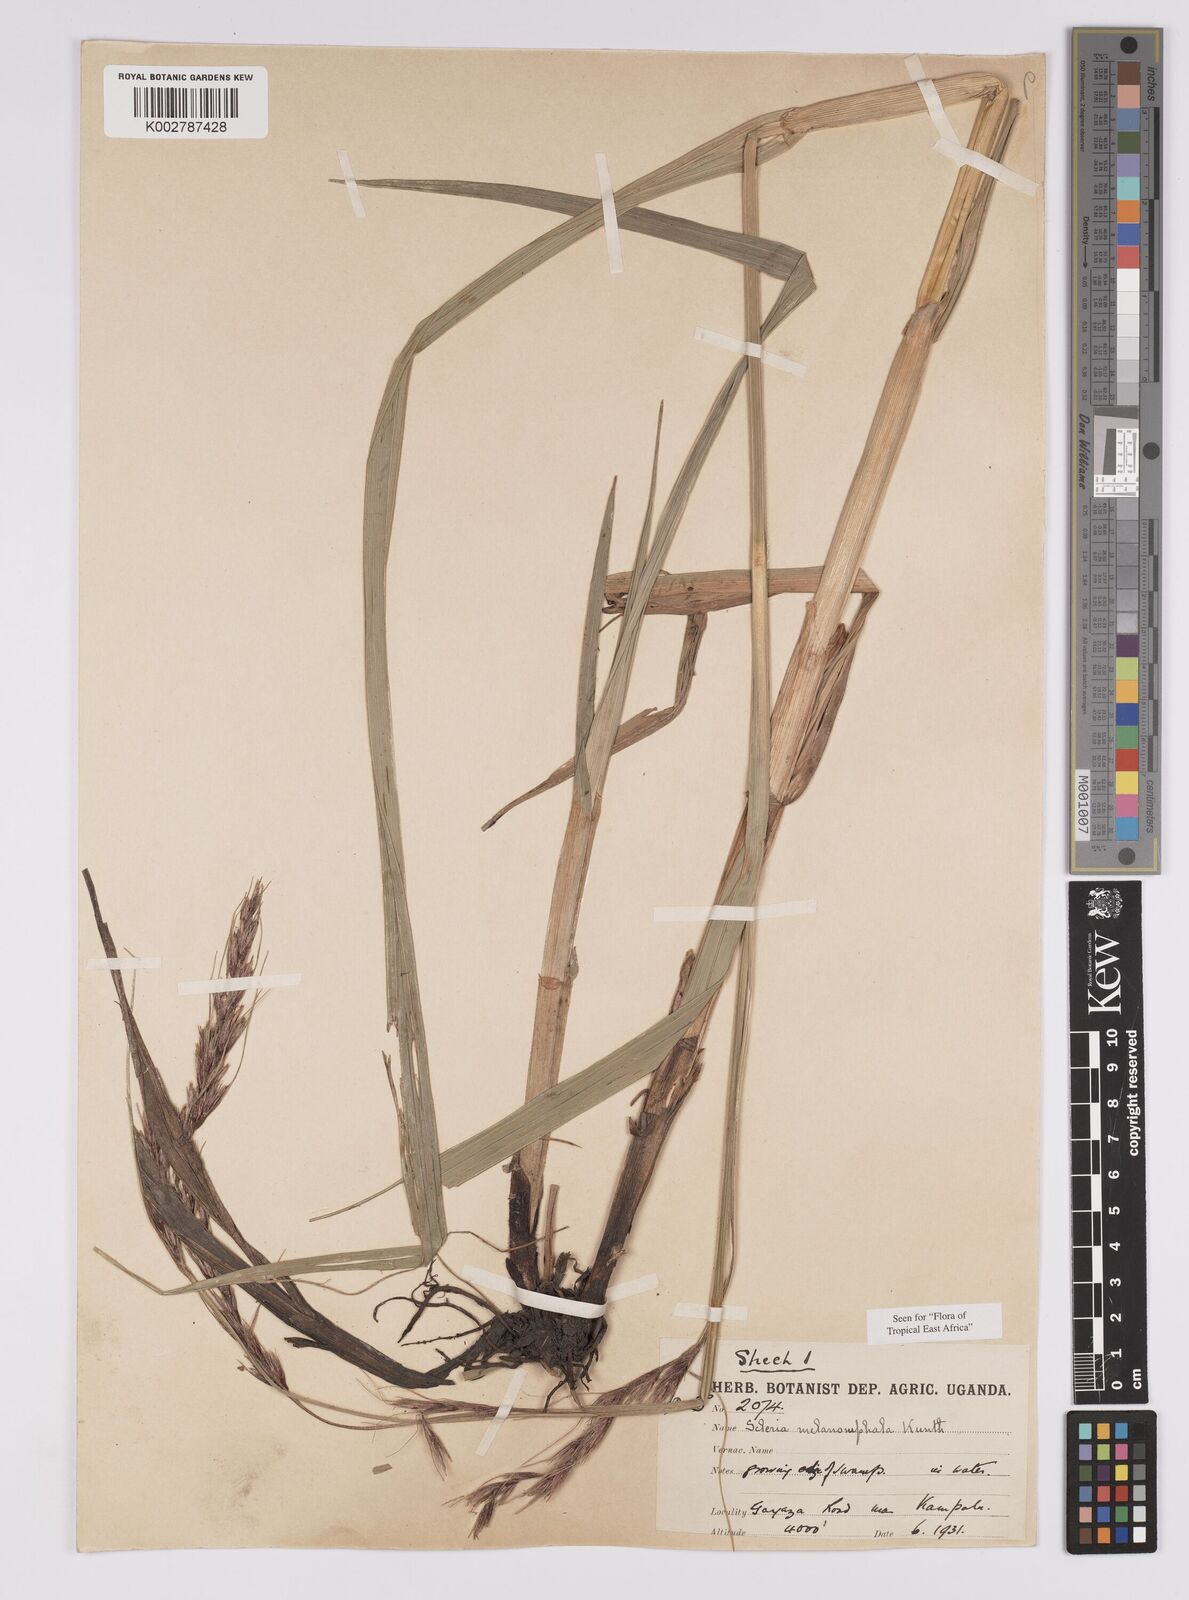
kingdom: Plantae
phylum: Tracheophyta
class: Liliopsida
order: Poales
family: Cyperaceae
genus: Scleria
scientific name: Scleria melanomphala
